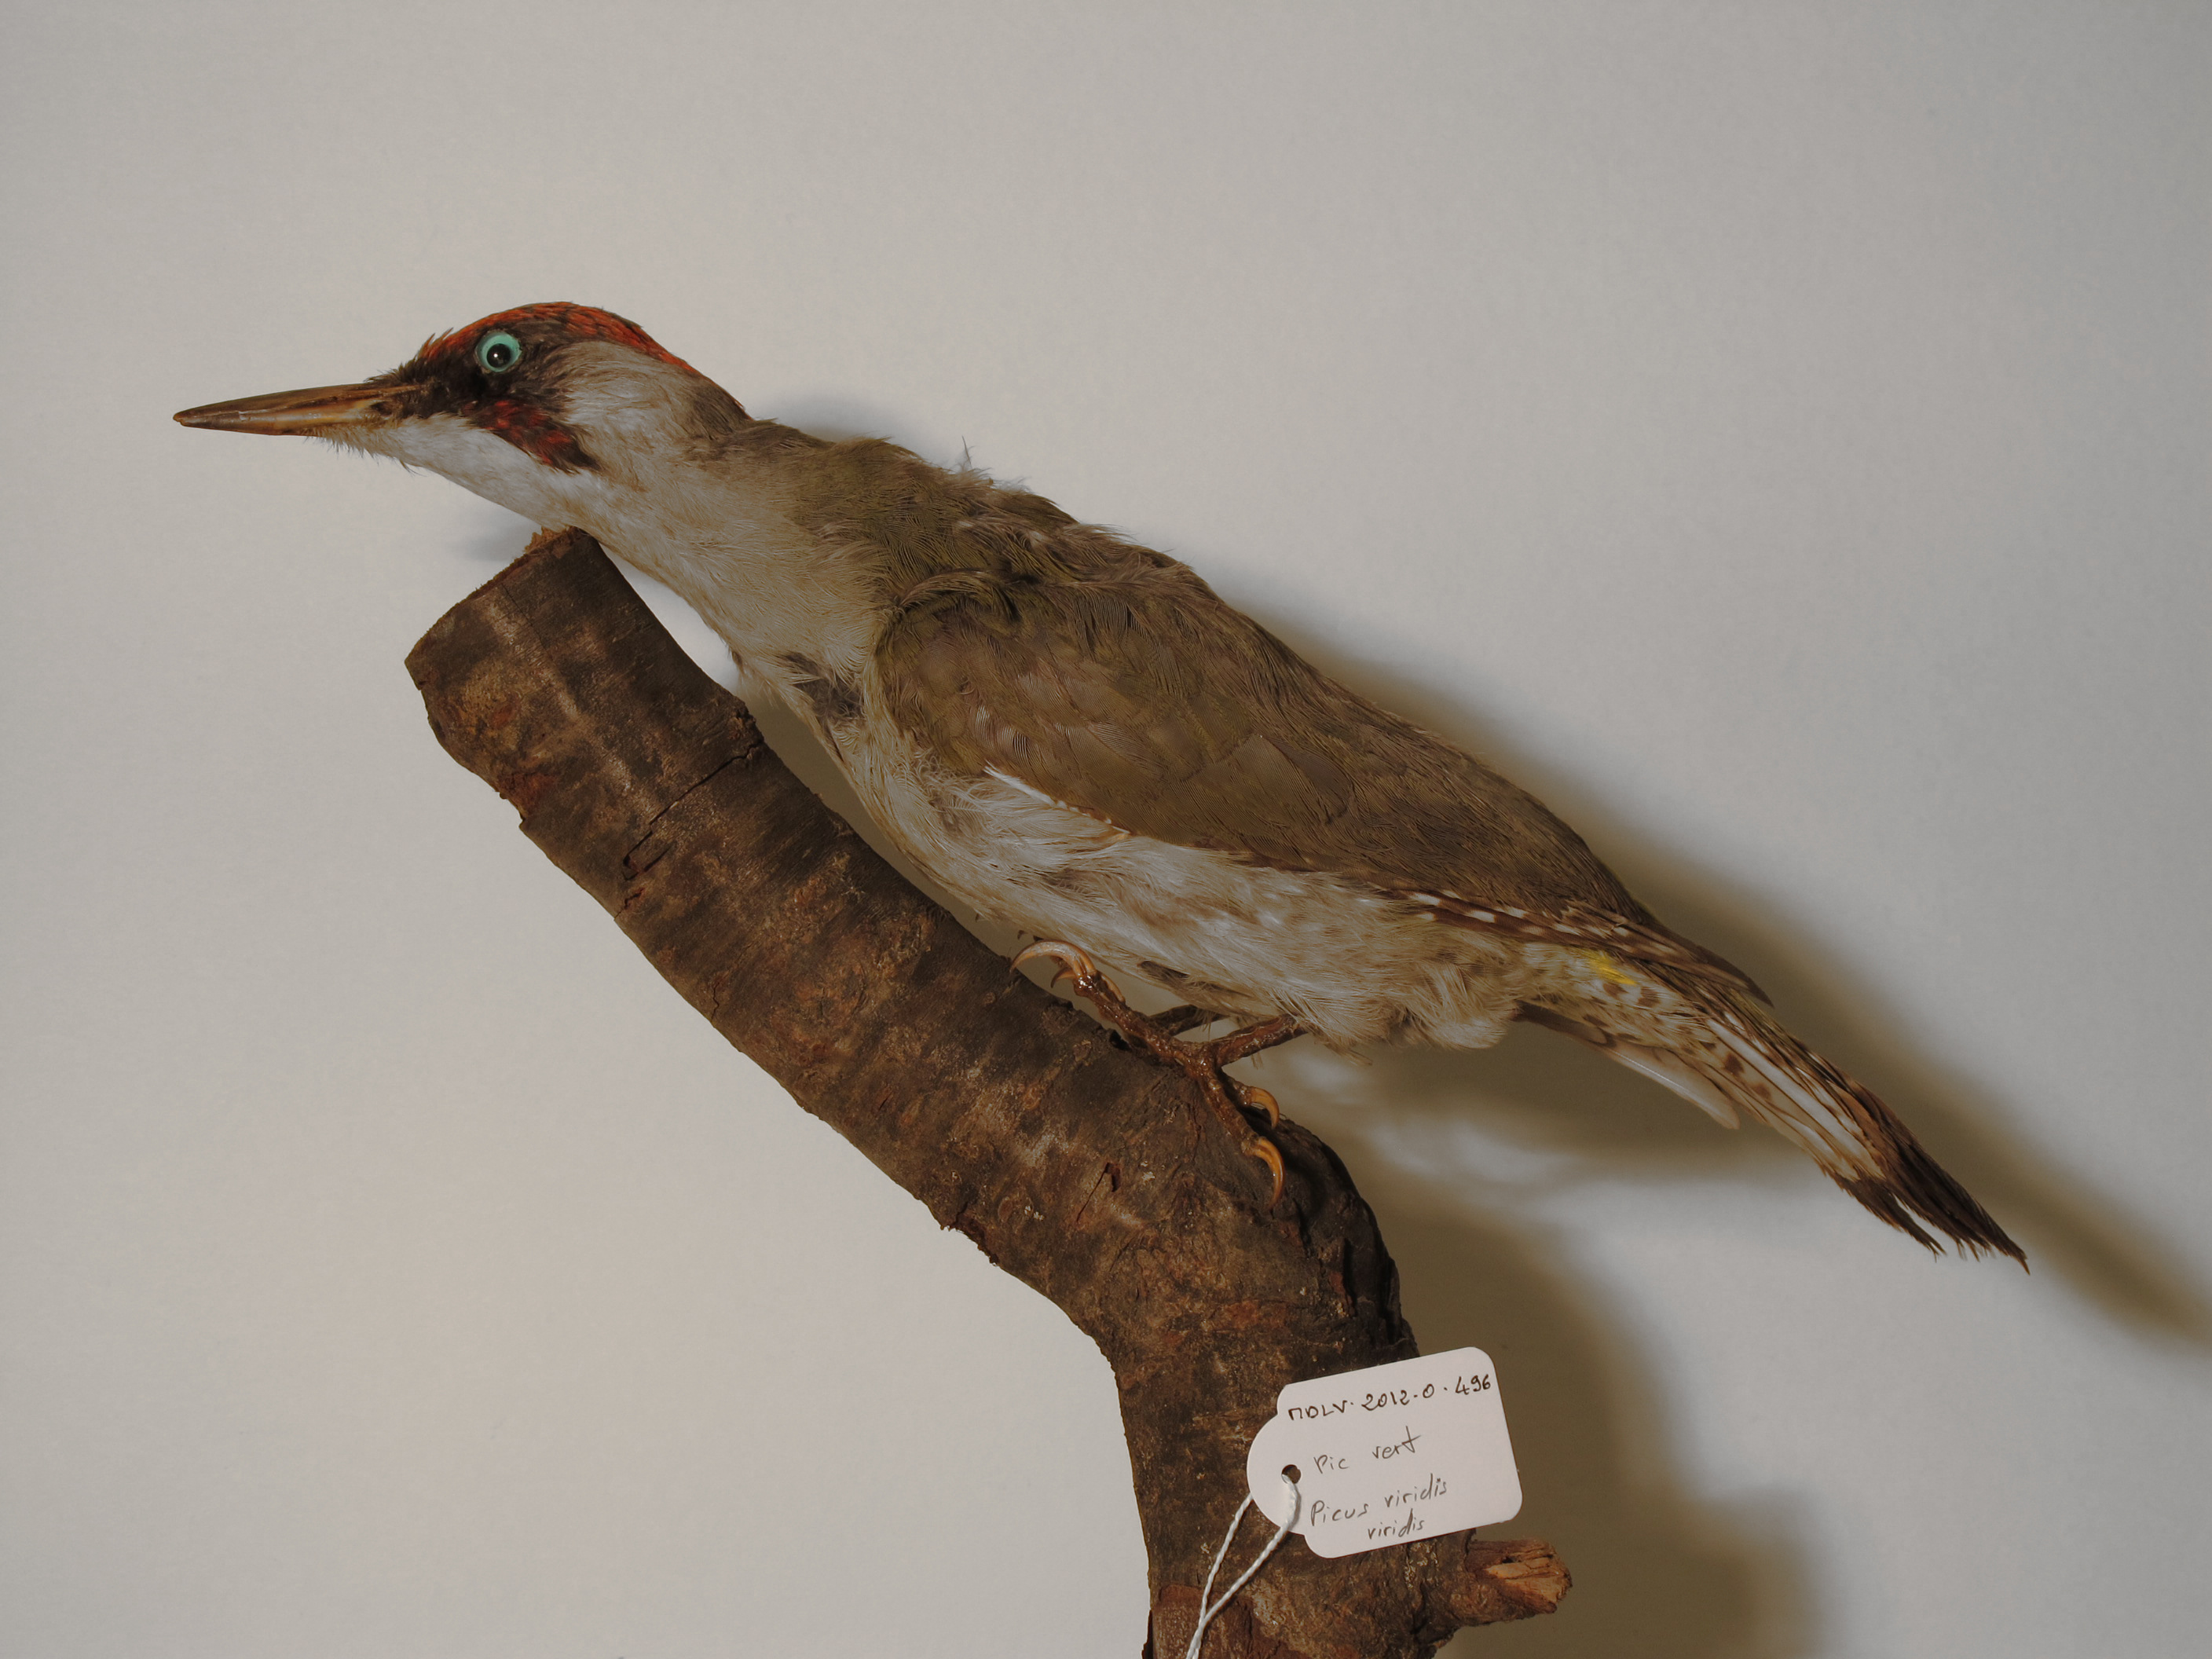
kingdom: Animalia
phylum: Chordata
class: Aves
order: Piciformes
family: Picidae
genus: Picus
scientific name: Picus viridis
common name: Eurasian Green Woodpecker
